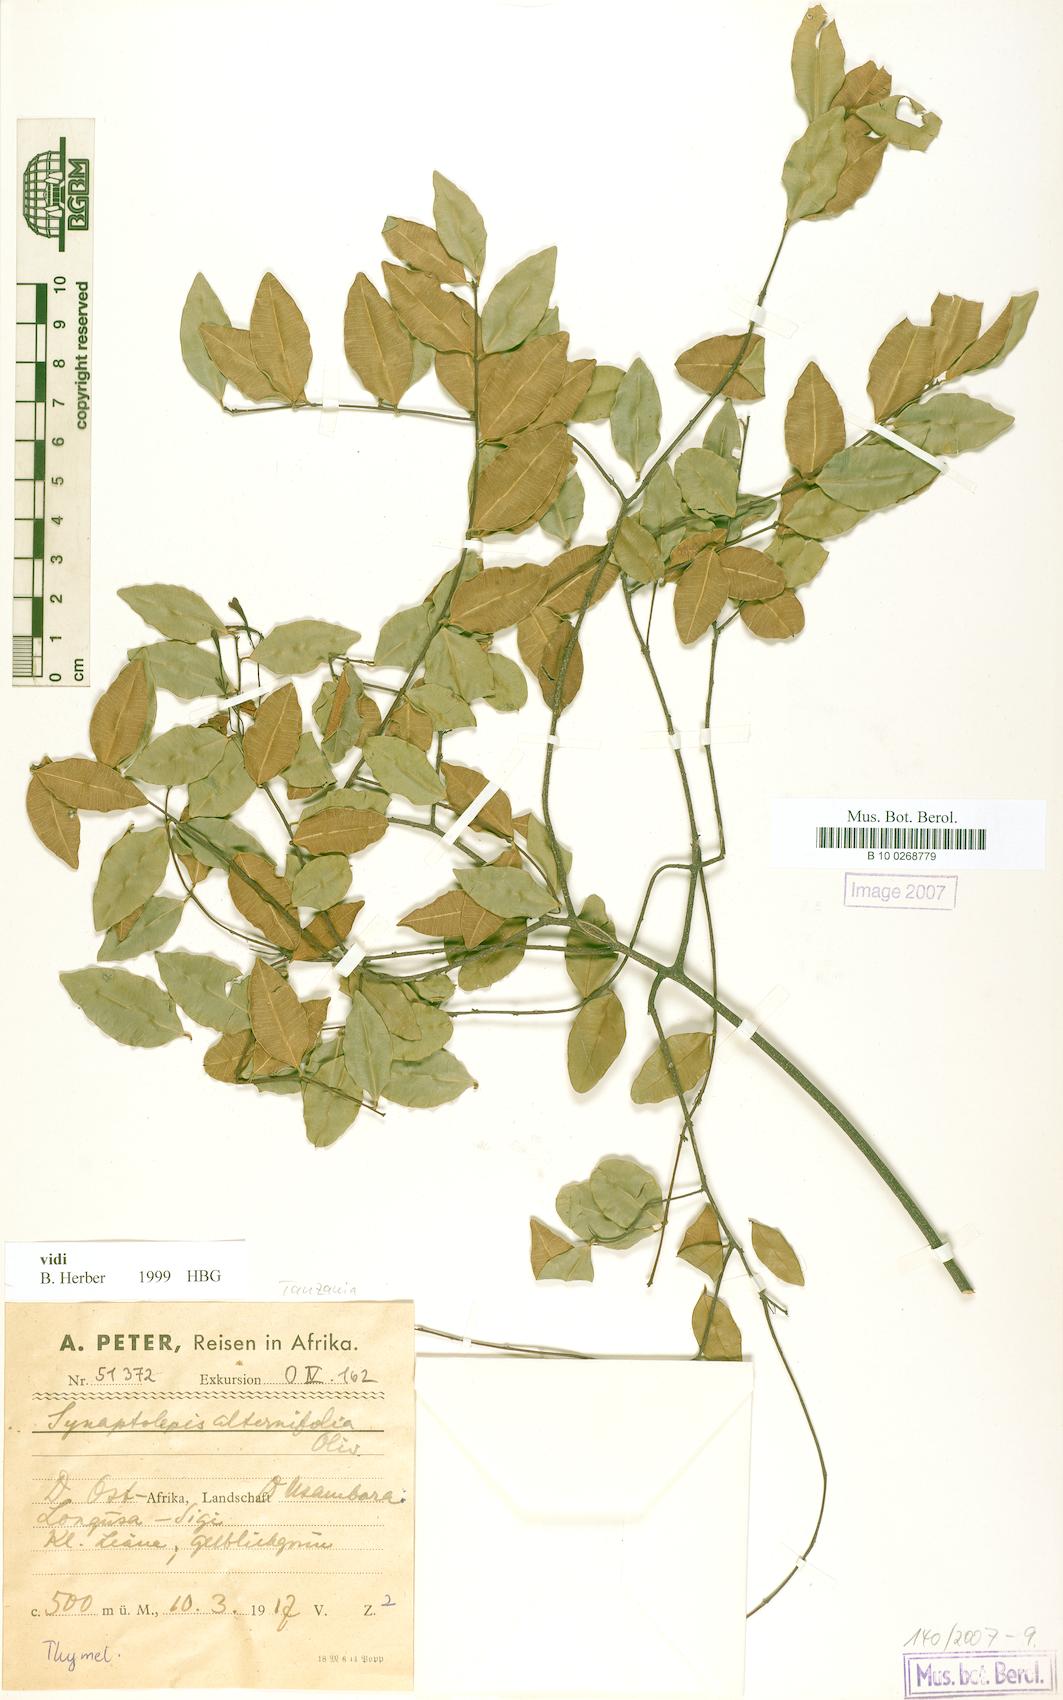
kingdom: Plantae
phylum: Tracheophyta
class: Magnoliopsida
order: Malvales
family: Thymelaeaceae
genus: Synaptolepis
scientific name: Synaptolepis alternifolia
